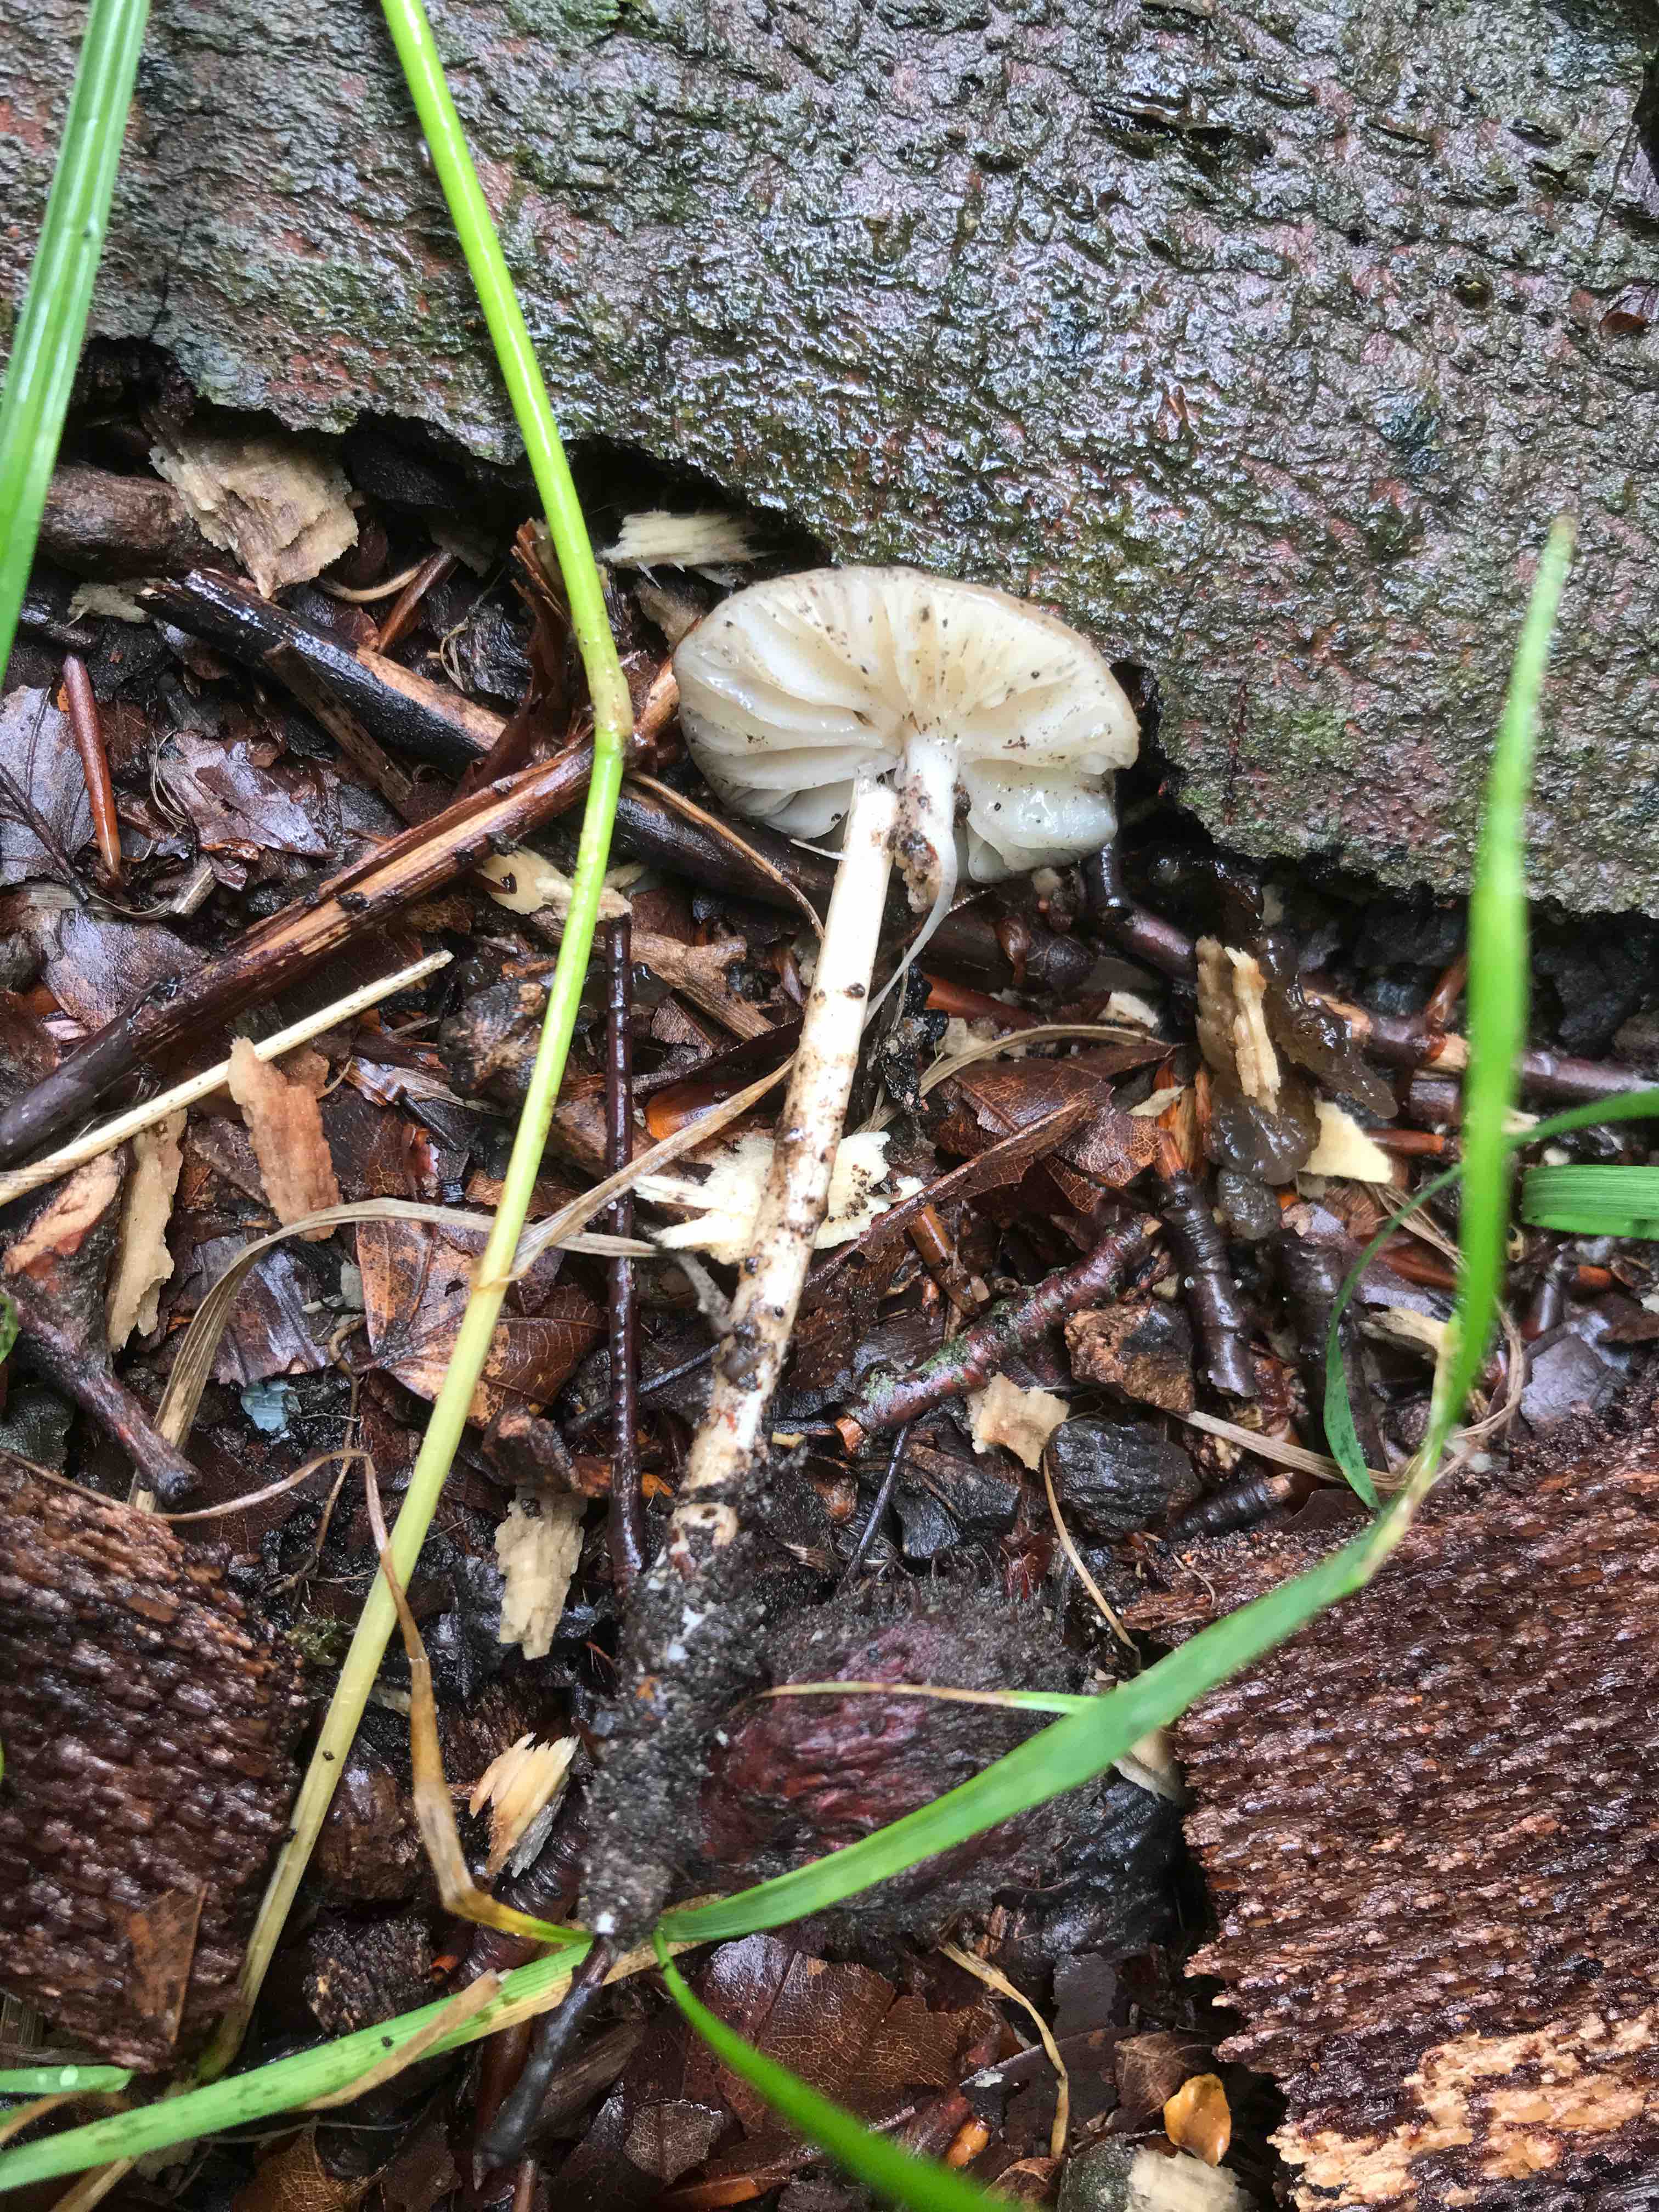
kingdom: Fungi
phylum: Basidiomycota
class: Agaricomycetes
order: Agaricales
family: Physalacriaceae
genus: Hymenopellis
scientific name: Hymenopellis radicata
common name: almindelig pælerodshat
